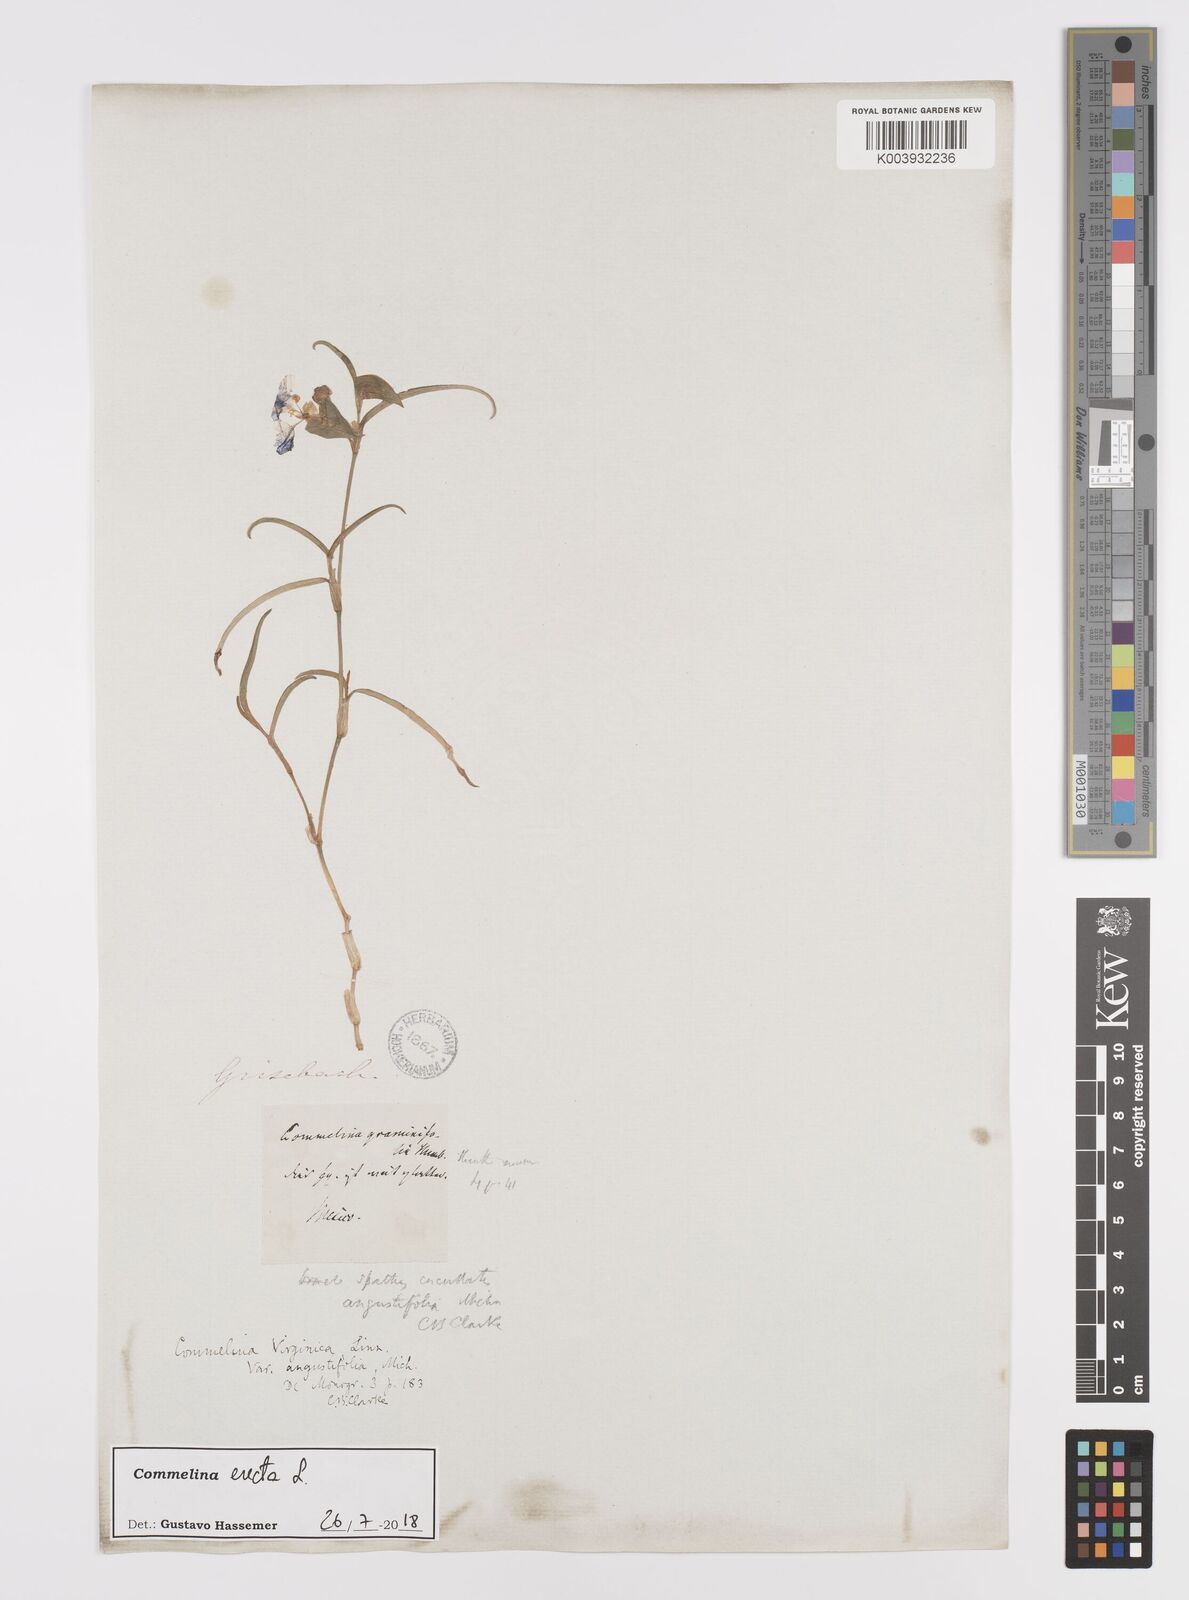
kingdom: Plantae
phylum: Tracheophyta
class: Liliopsida
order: Commelinales
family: Commelinaceae
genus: Commelina
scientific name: Commelina erecta
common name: Blousel blommetjie
